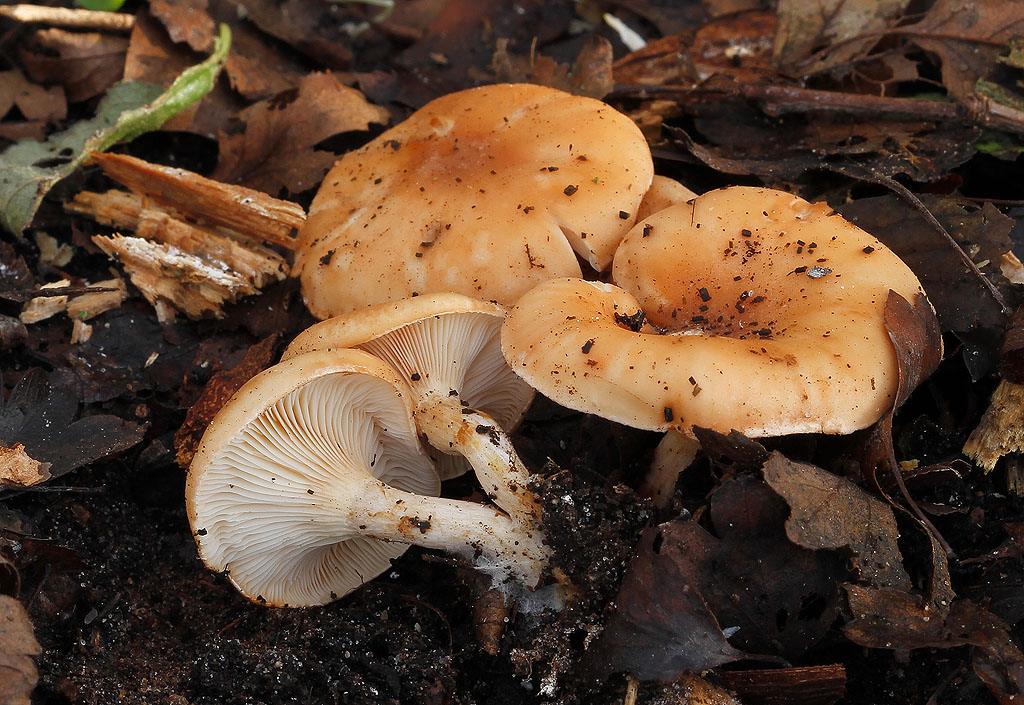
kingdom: Fungi
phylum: Basidiomycota
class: Agaricomycetes
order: Agaricales
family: Tricholomataceae
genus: Paralepista
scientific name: Paralepista flaccida
